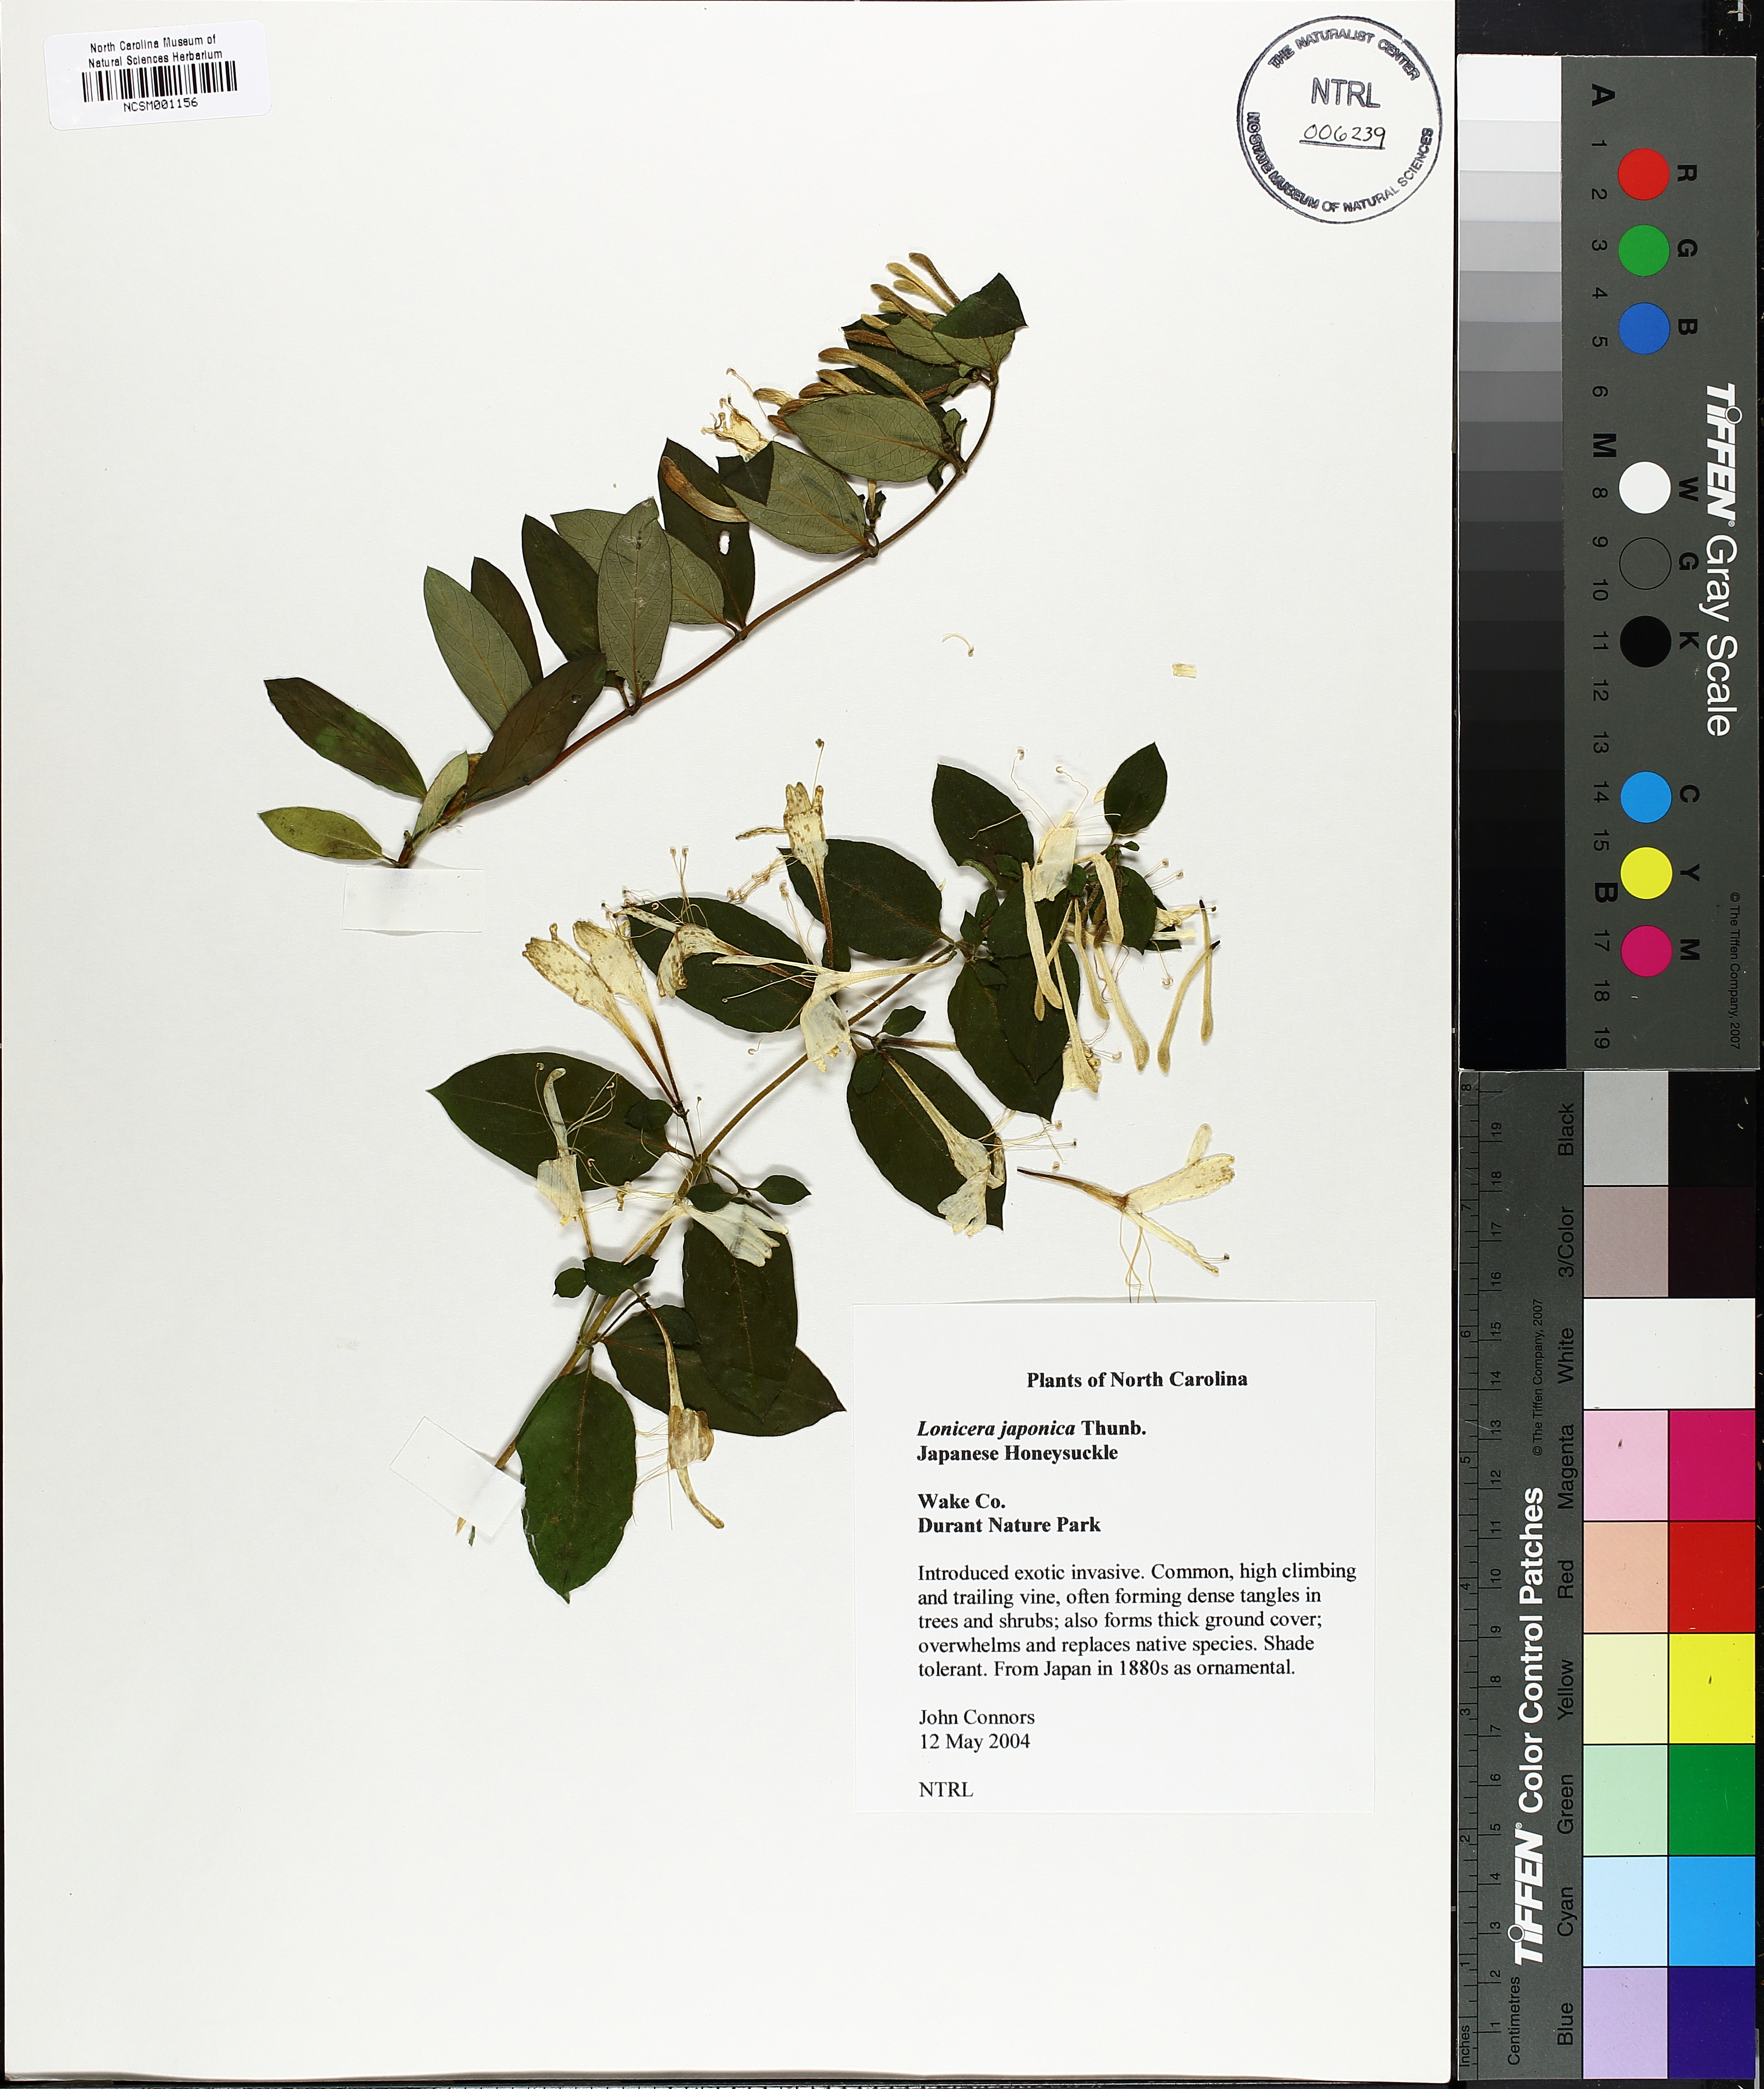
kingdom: Plantae
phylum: Tracheophyta
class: Magnoliopsida
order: Dipsacales
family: Caprifoliaceae
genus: Lonicera
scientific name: Lonicera japonica
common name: Japanese honeysuckle
